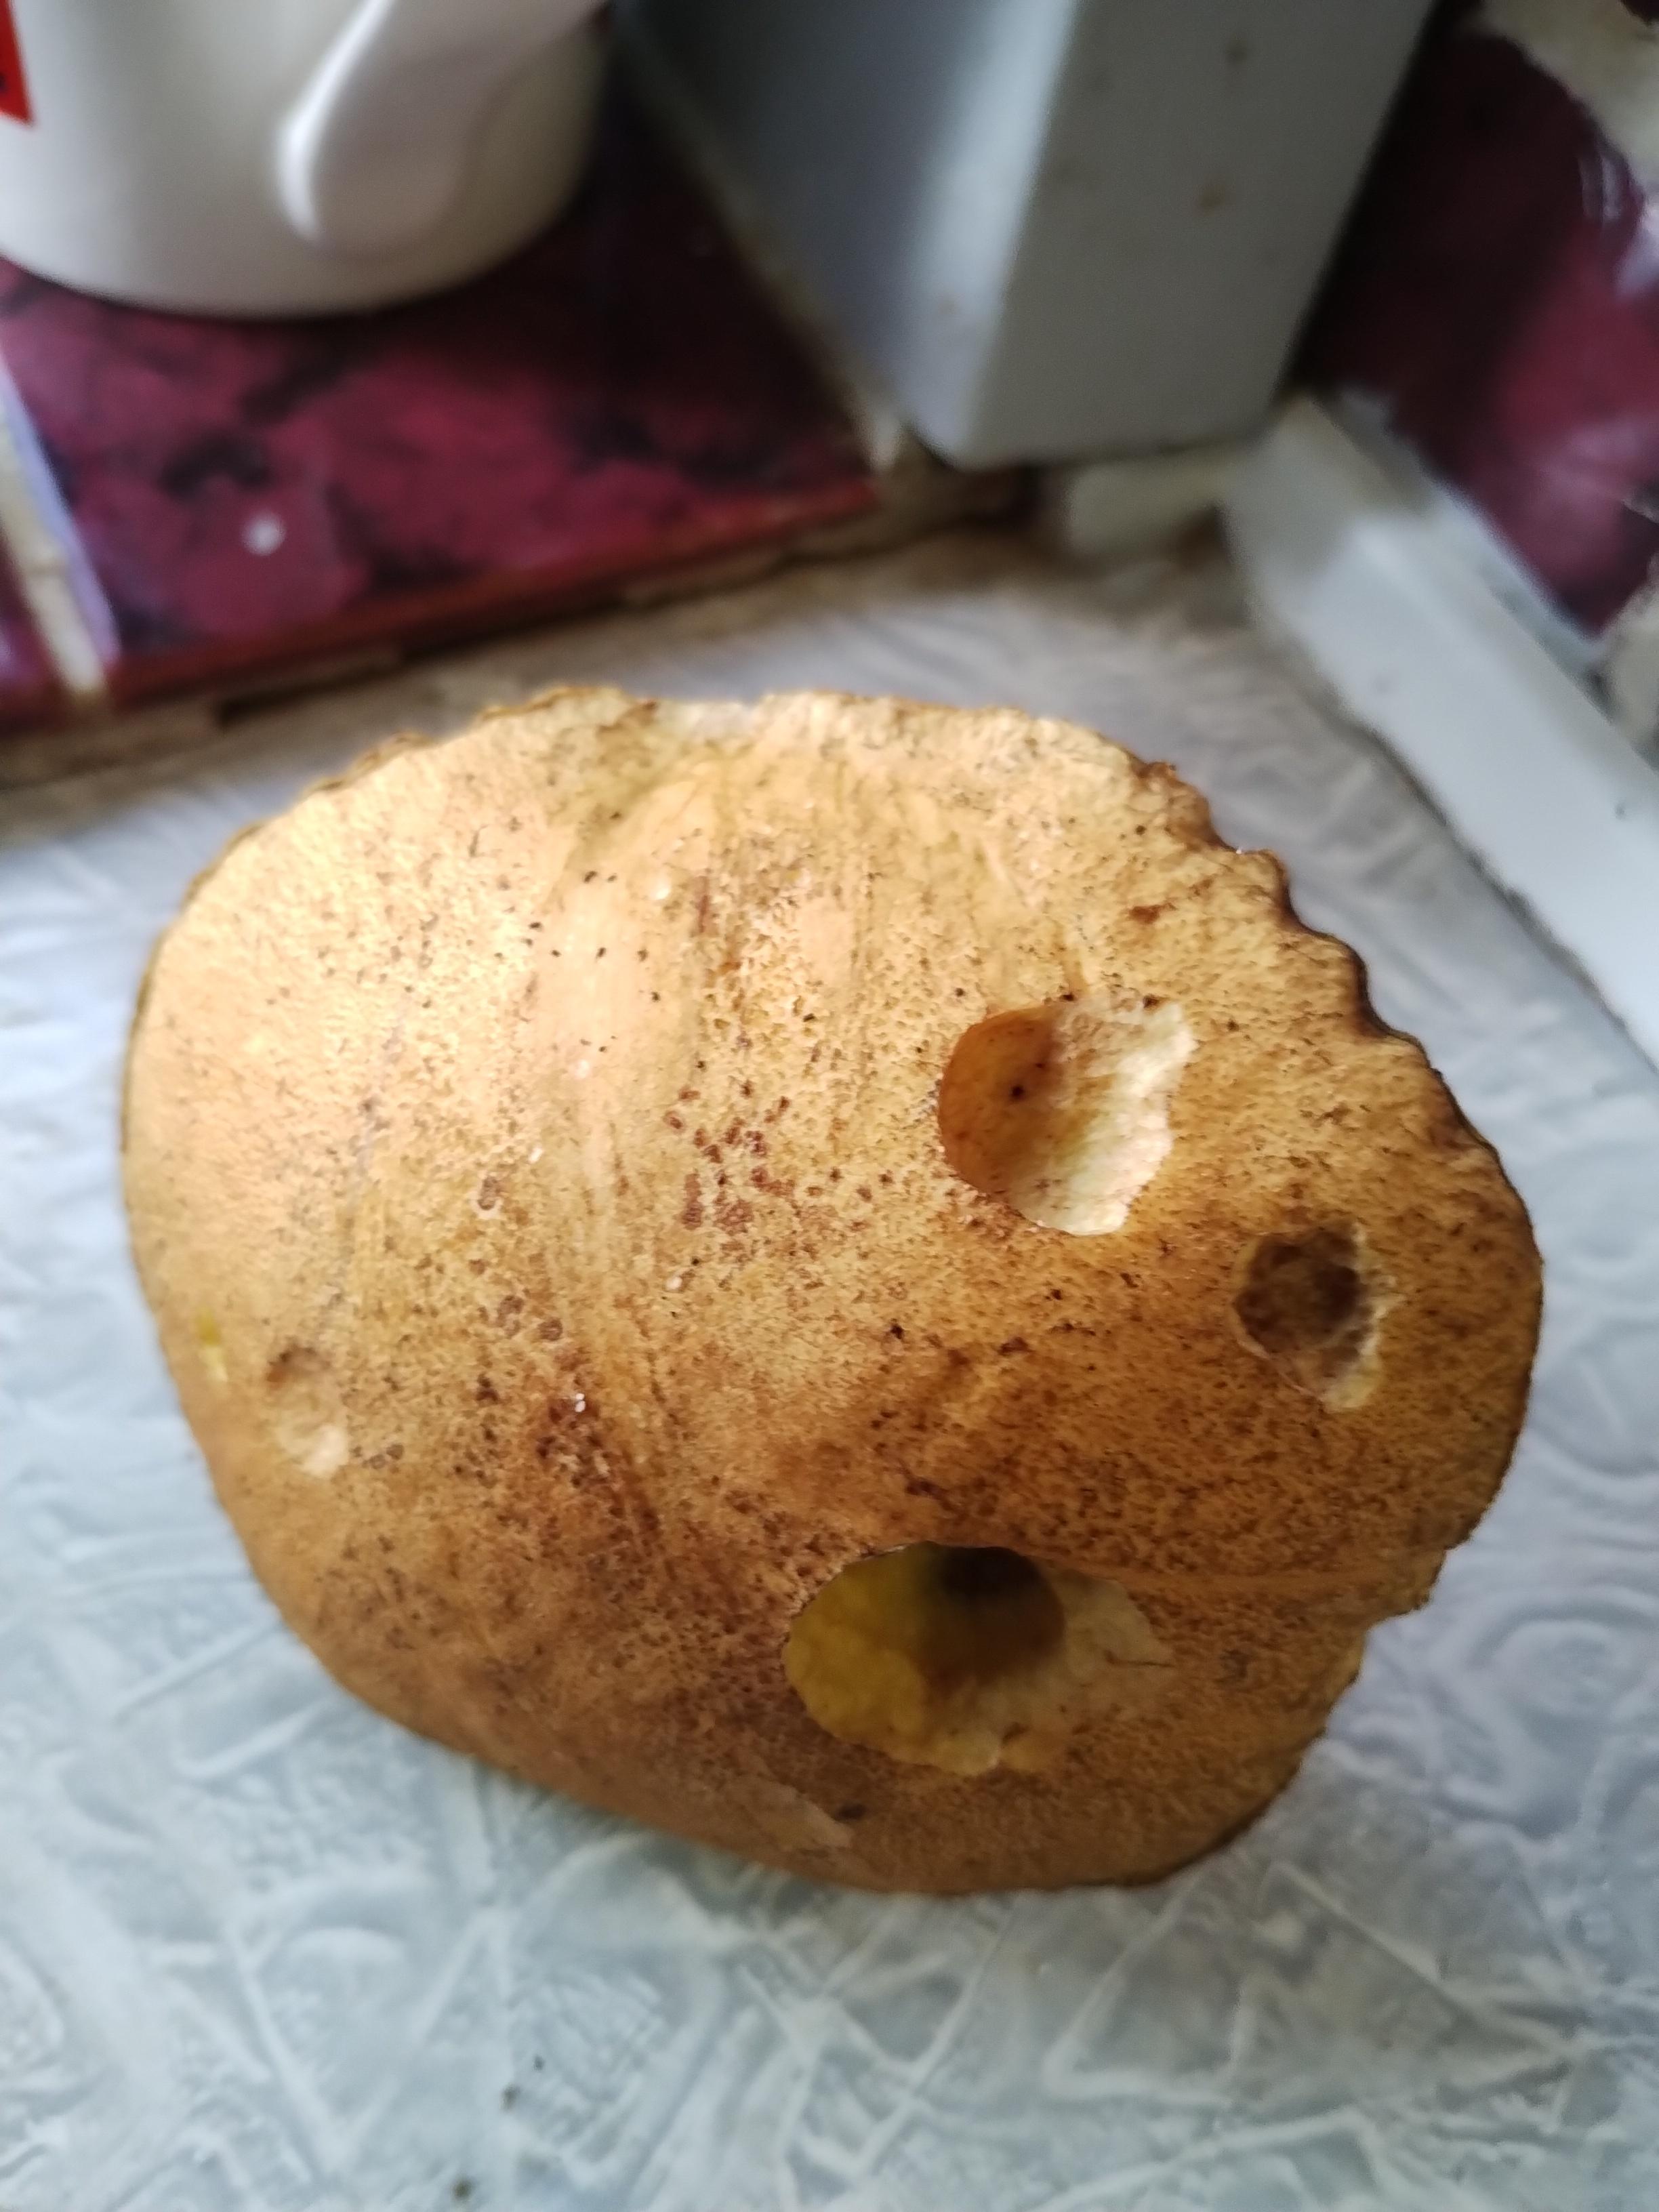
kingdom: Fungi
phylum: Basidiomycota
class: Agaricomycetes
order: Boletales
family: Suillaceae
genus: Suillus
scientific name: Suillus variegatus
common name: broget slimrørhat
